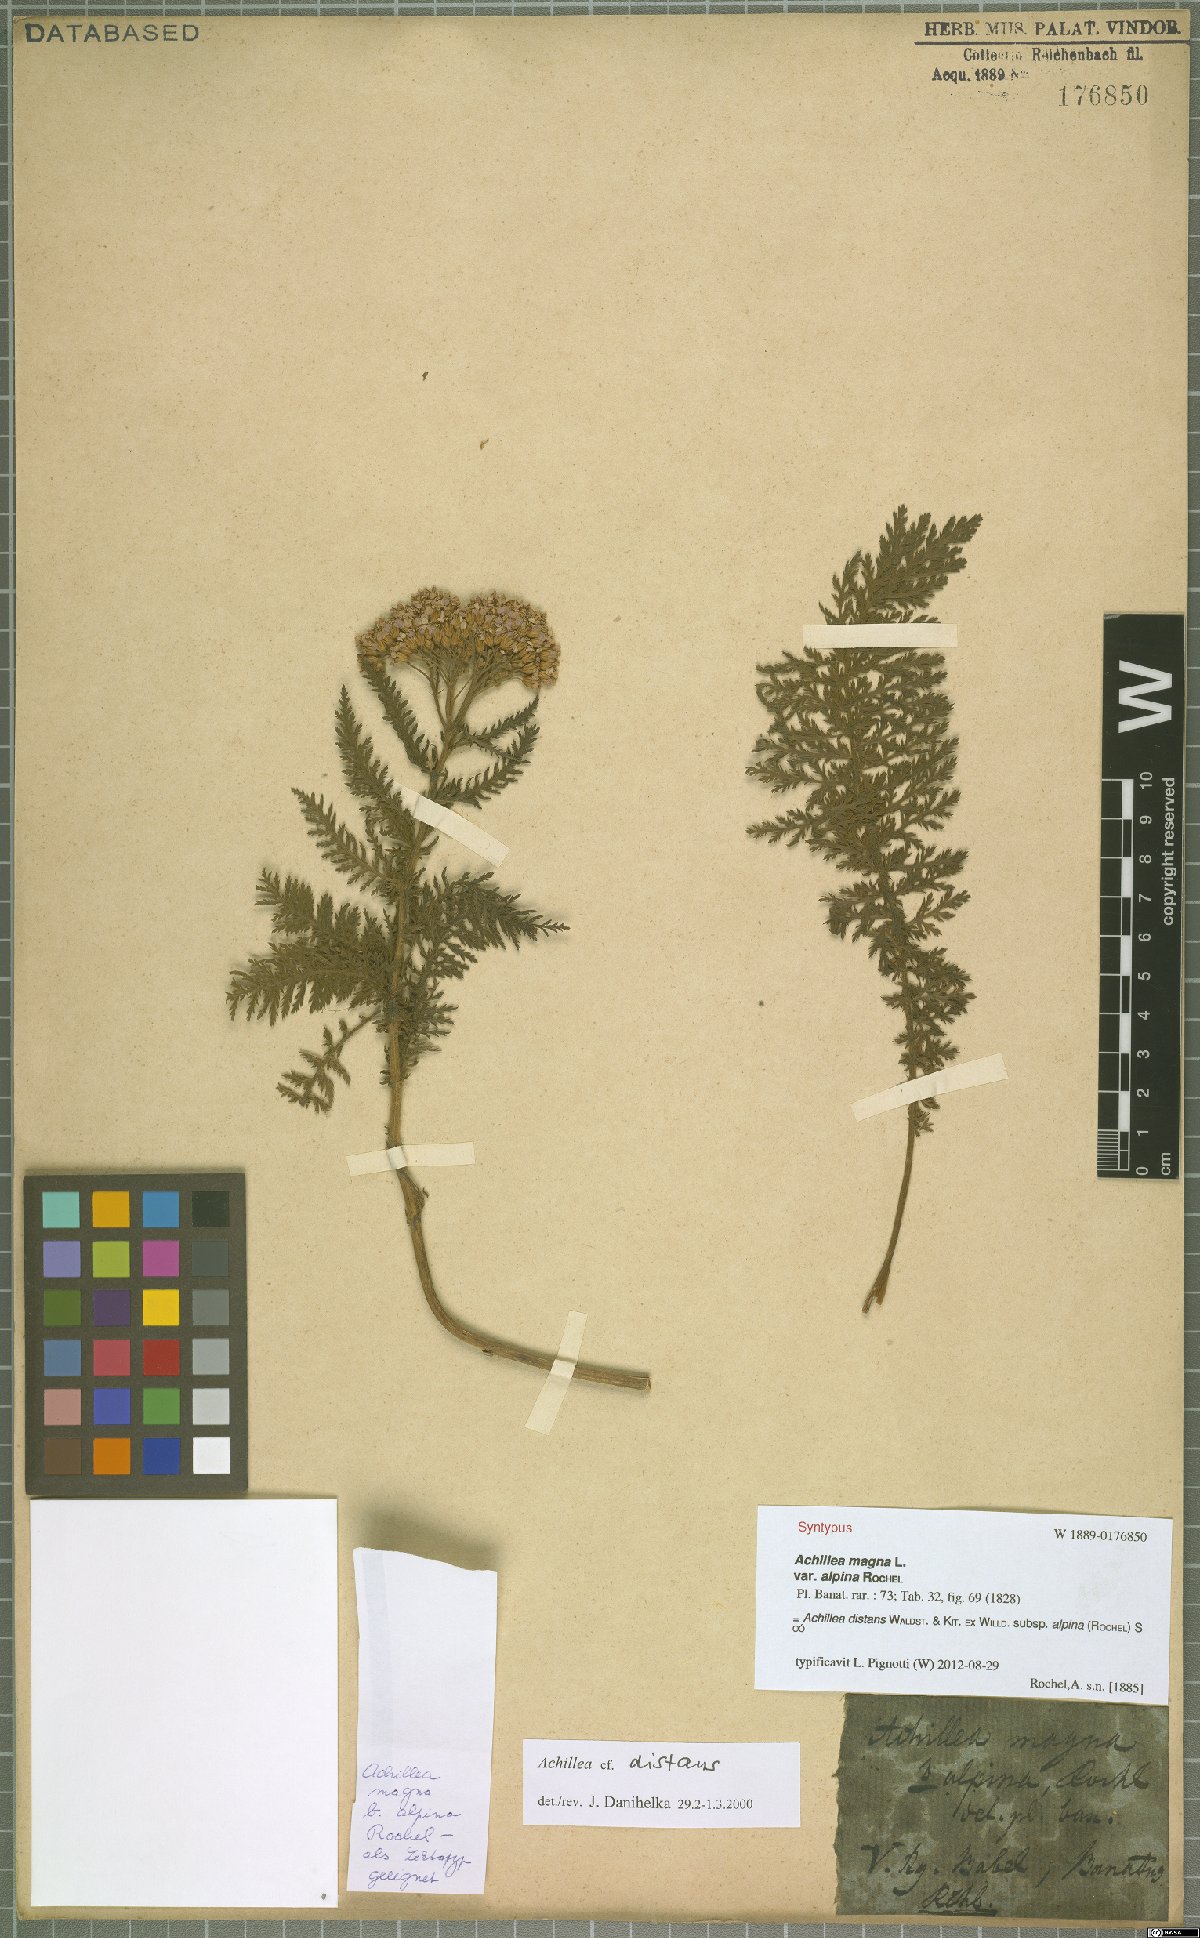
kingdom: Plantae
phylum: Tracheophyta
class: Magnoliopsida
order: Asterales
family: Asteraceae
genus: Achillea
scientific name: Achillea distans
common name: Tall yarrow
